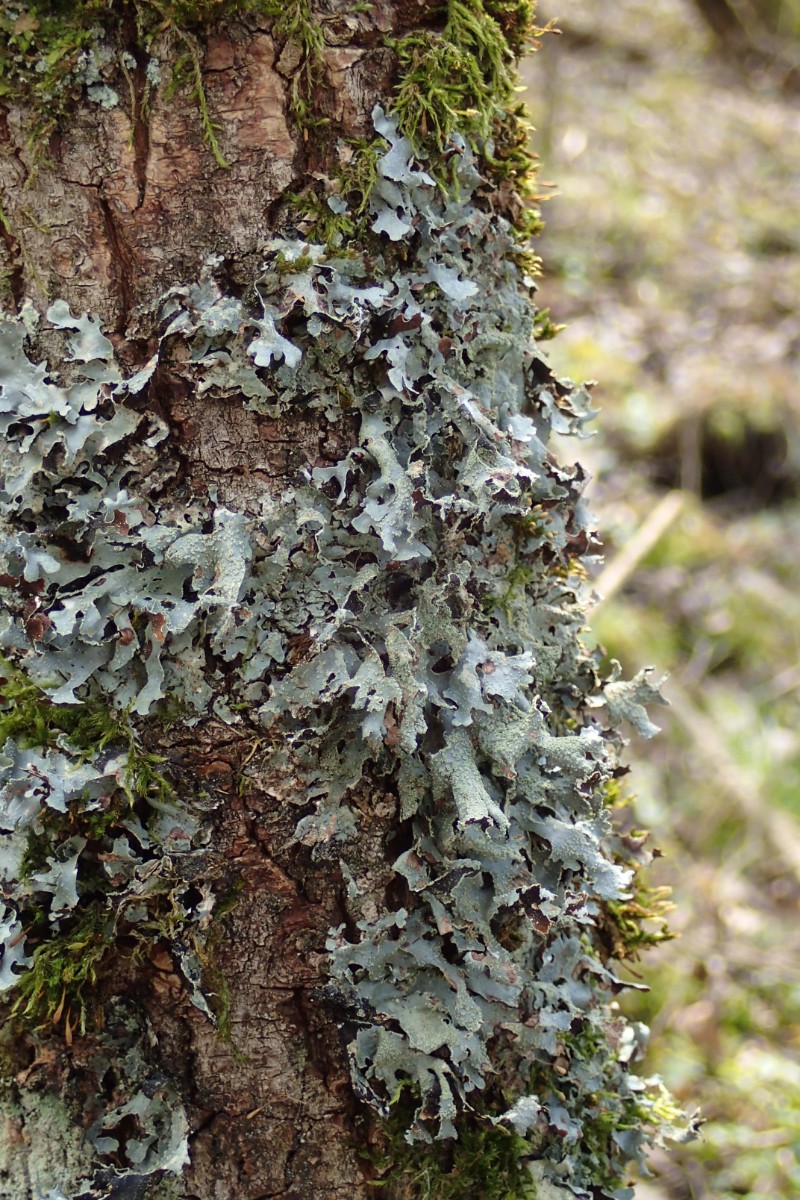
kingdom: Fungi
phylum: Ascomycota
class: Lecanoromycetes
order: Lecanorales
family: Parmeliaceae
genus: Parmelia
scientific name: Parmelia submontana
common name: langlobet skållav
